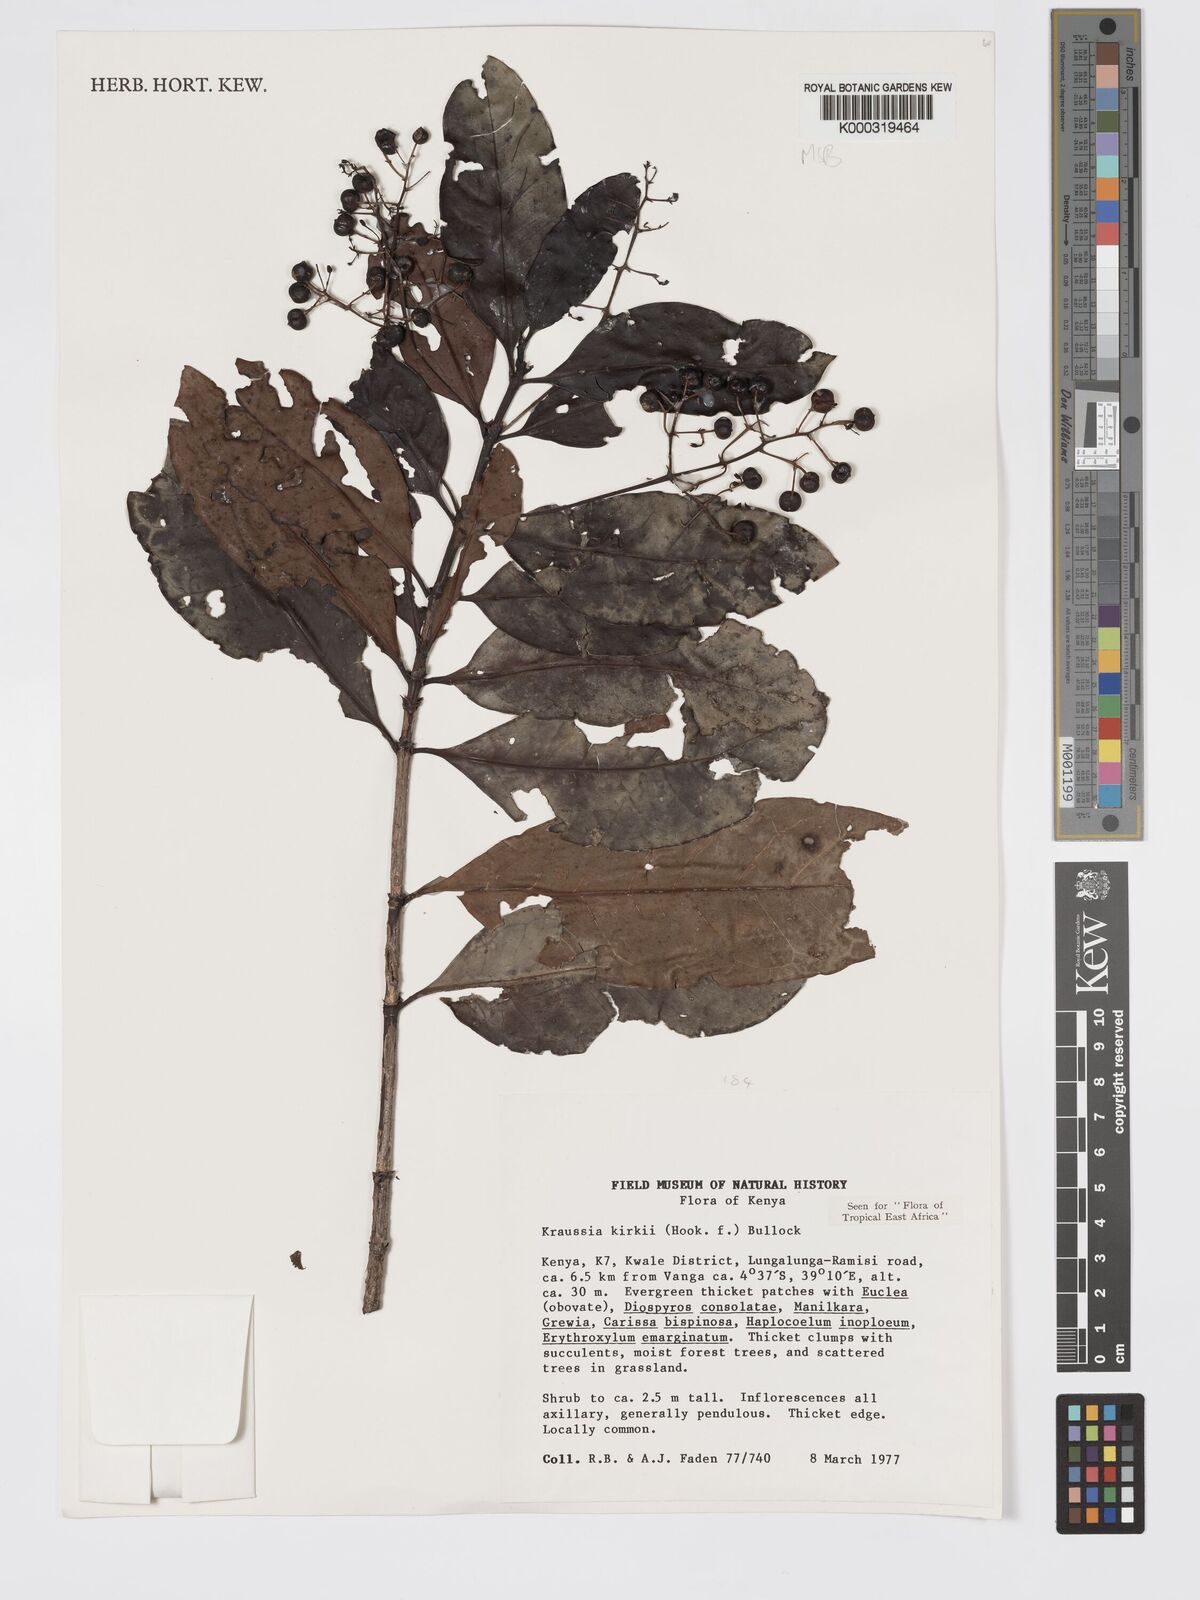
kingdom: Plantae
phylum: Tracheophyta
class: Magnoliopsida
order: Gentianales
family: Rubiaceae
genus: Kraussia
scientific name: Kraussia kirkii
